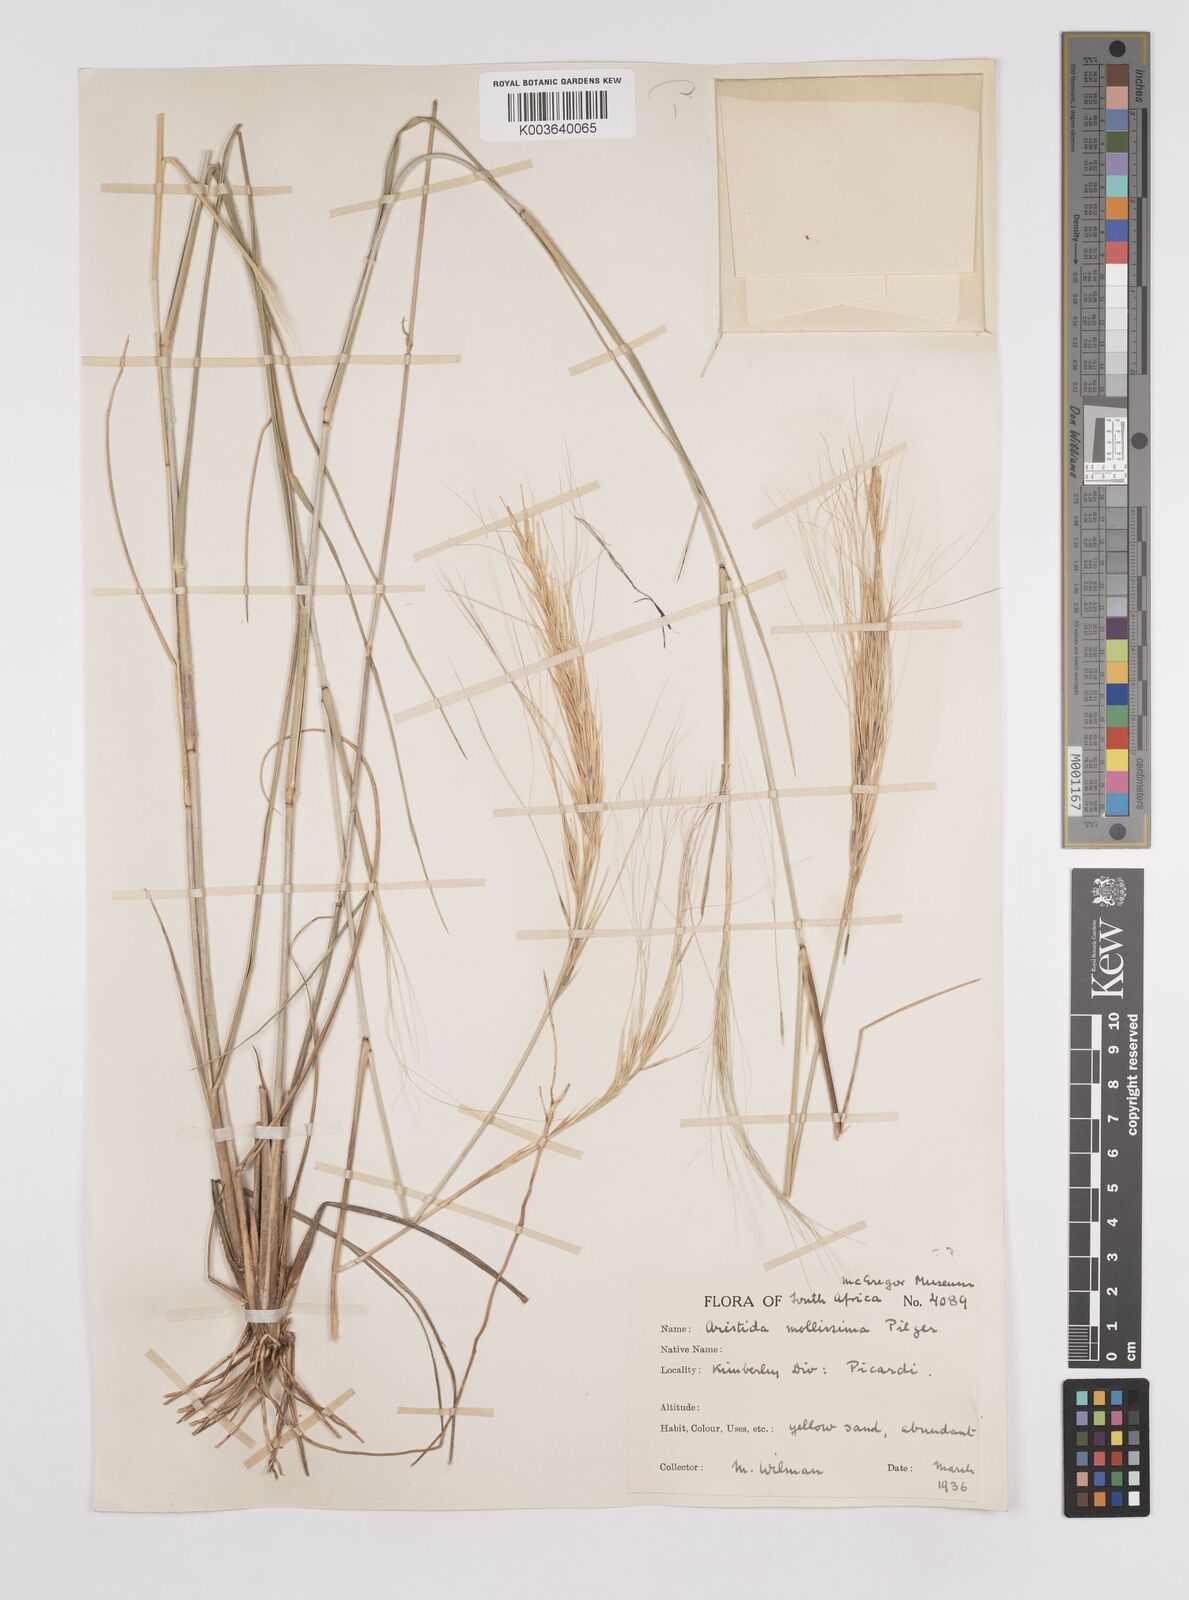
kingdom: Plantae
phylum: Tracheophyta
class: Liliopsida
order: Poales
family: Poaceae
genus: Aristida
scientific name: Aristida mollissima
